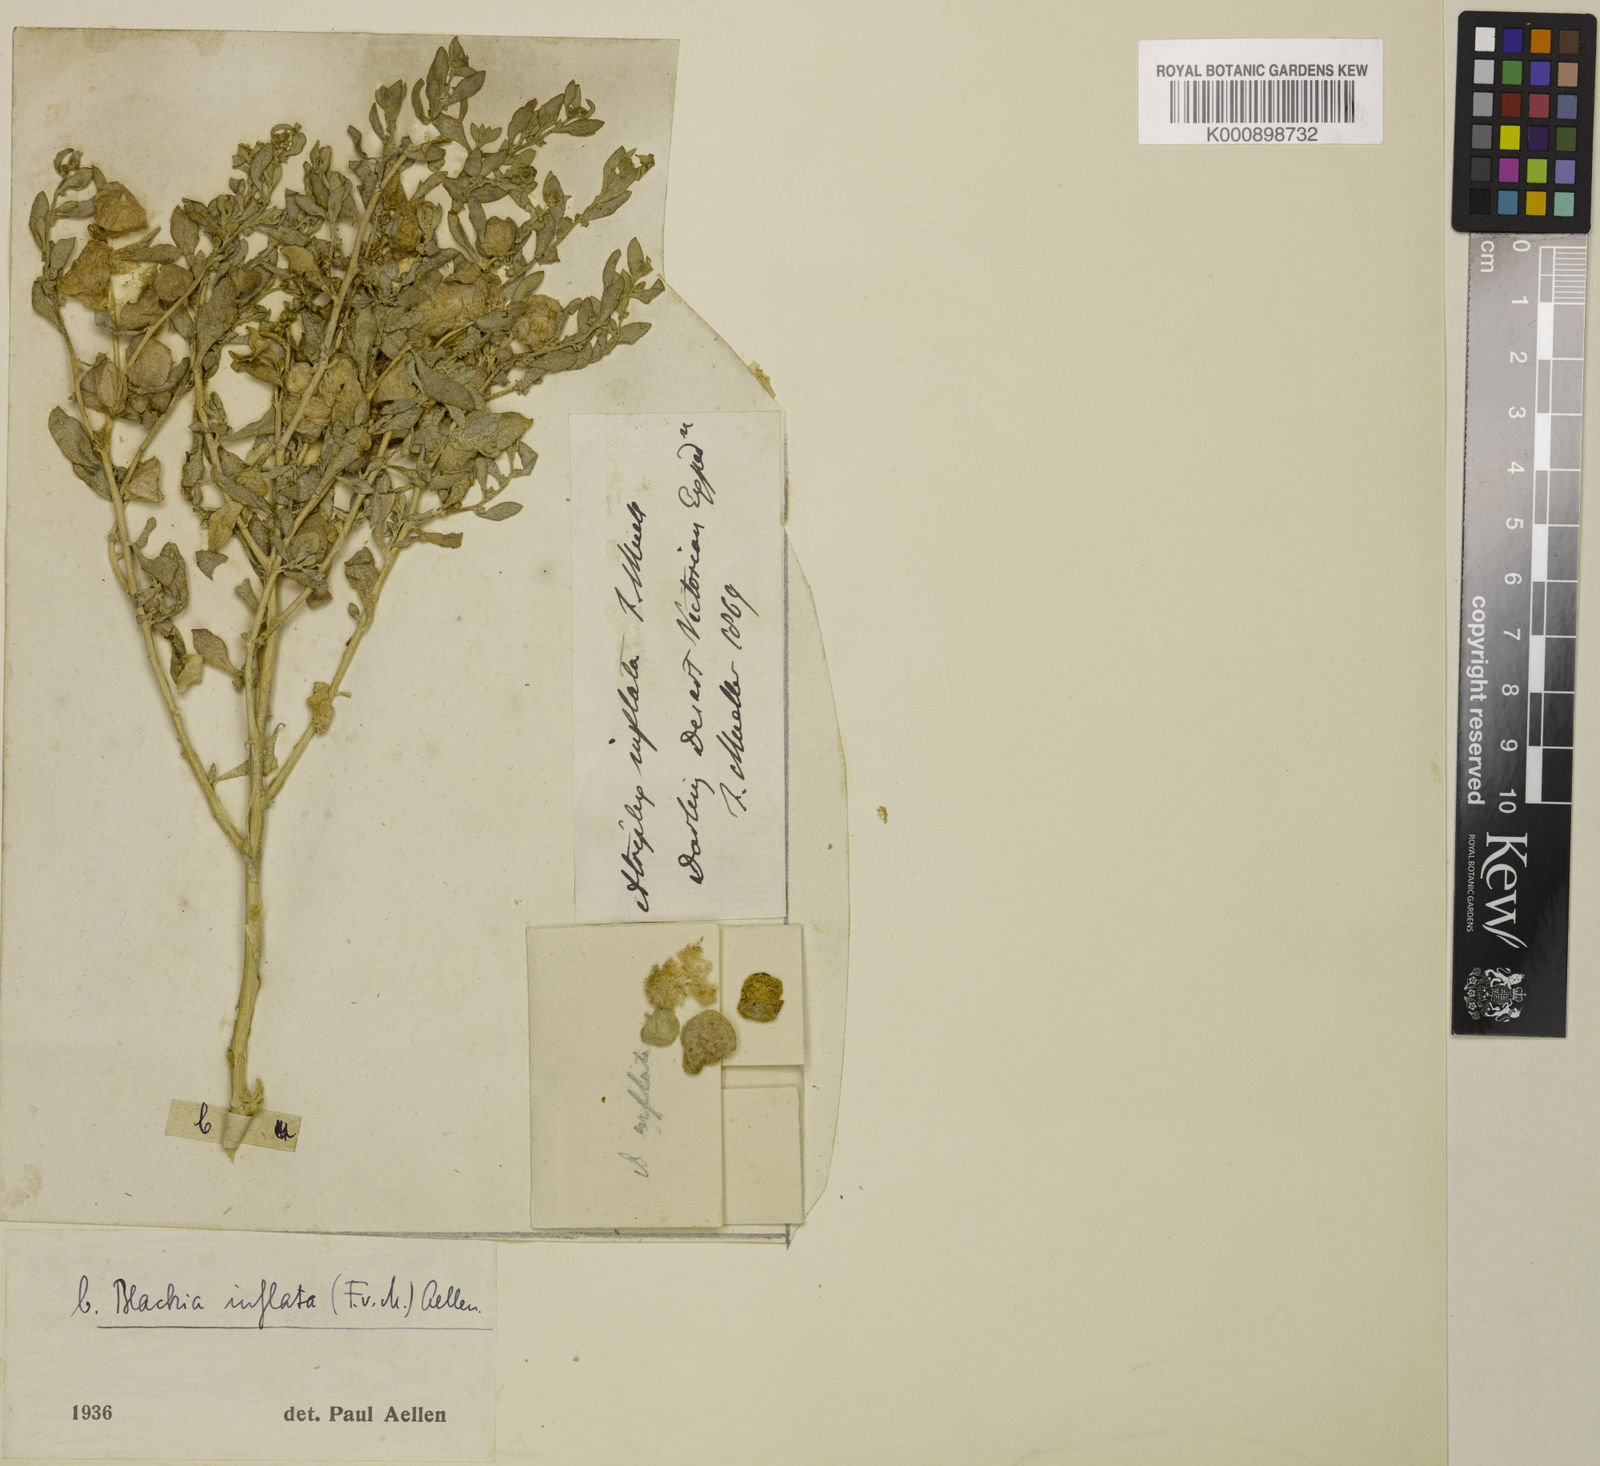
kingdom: Plantae
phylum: Tracheophyta
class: Magnoliopsida
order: Caryophyllales
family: Amaranthaceae
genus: Atriplex
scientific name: Atriplex lindleyi
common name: Lindley's saltbush
